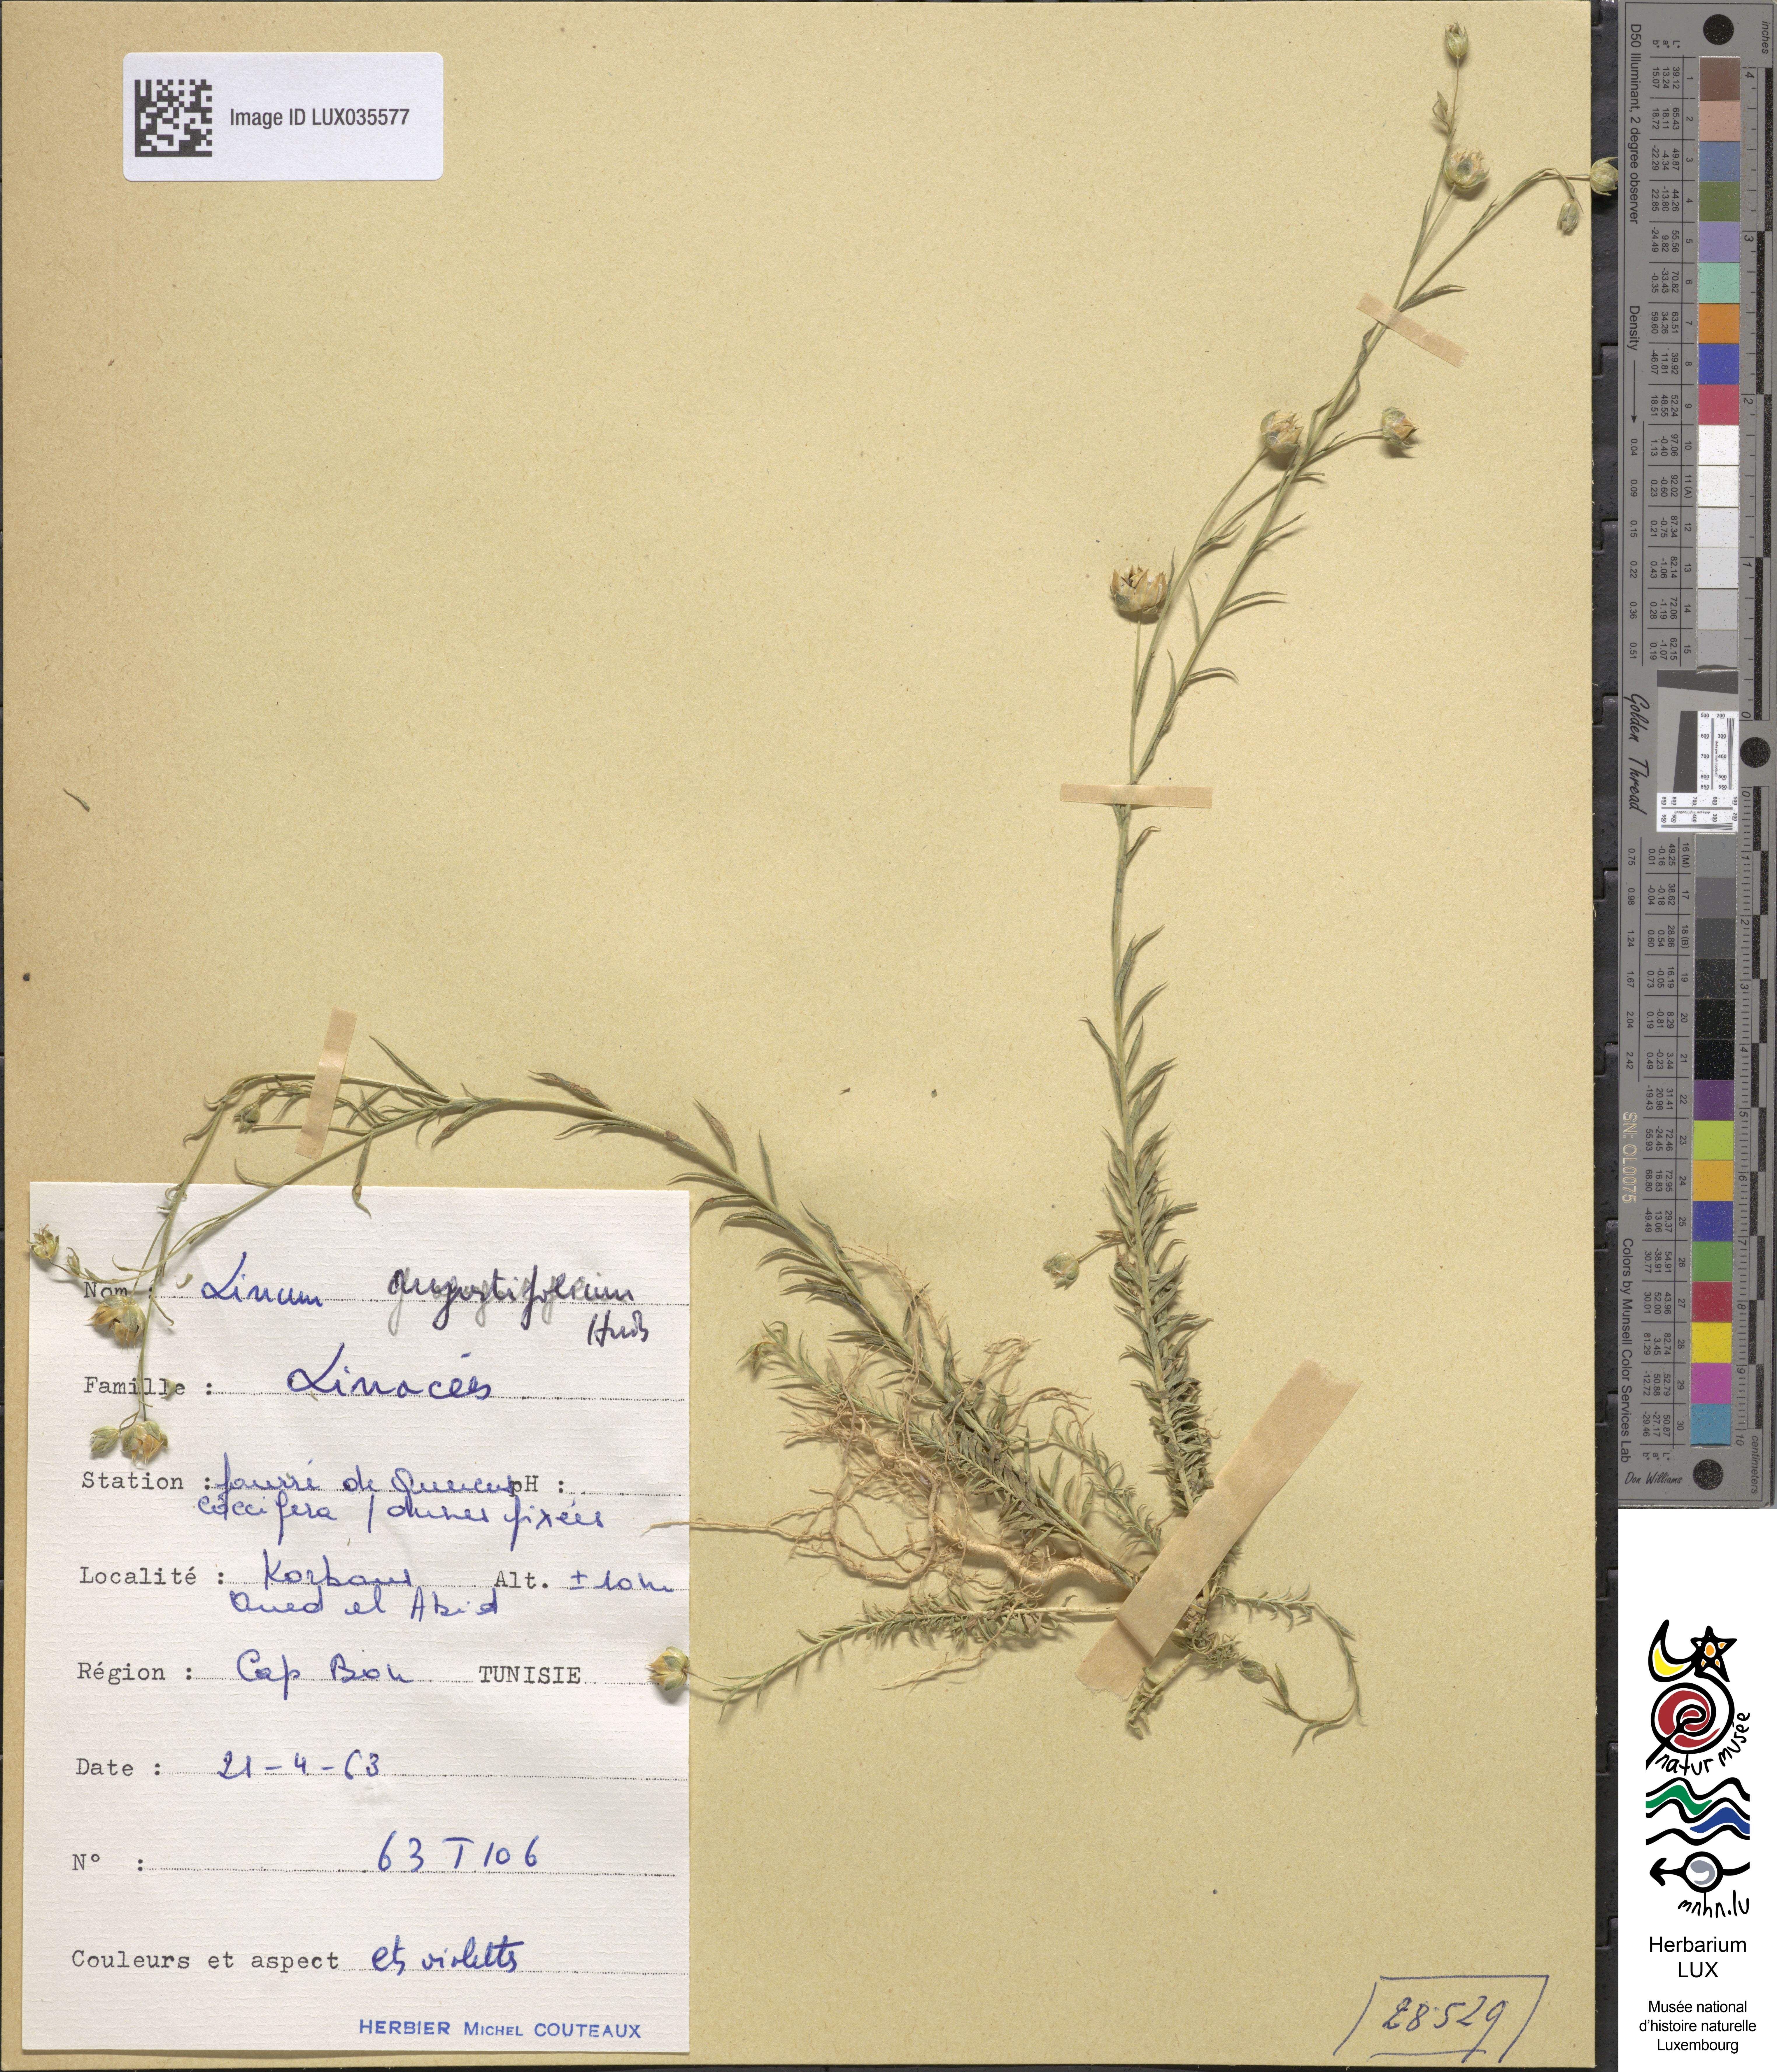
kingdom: Plantae
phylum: Tracheophyta
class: Magnoliopsida
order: Malpighiales
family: Linaceae
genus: Linum
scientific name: Linum usitatissimum
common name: Flax
